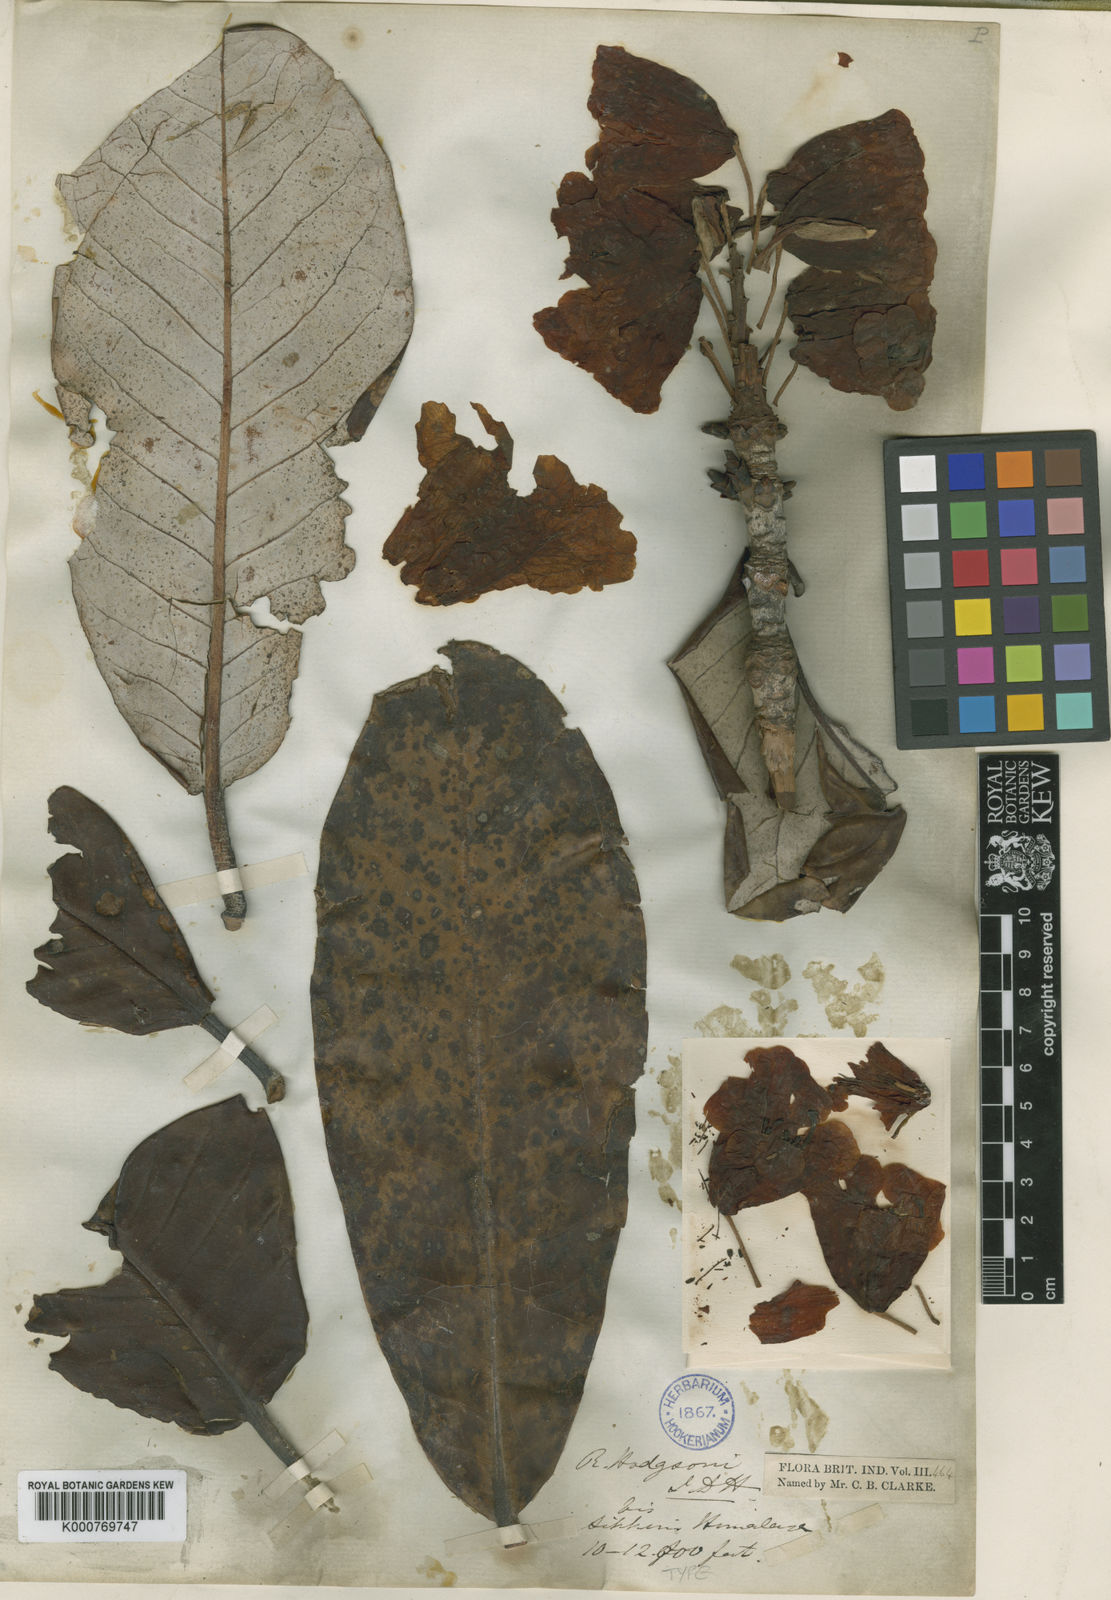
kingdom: Plantae
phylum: Tracheophyta
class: Magnoliopsida
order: Ericales
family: Ericaceae
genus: Rhododendron
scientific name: Rhododendron hodgsonii
